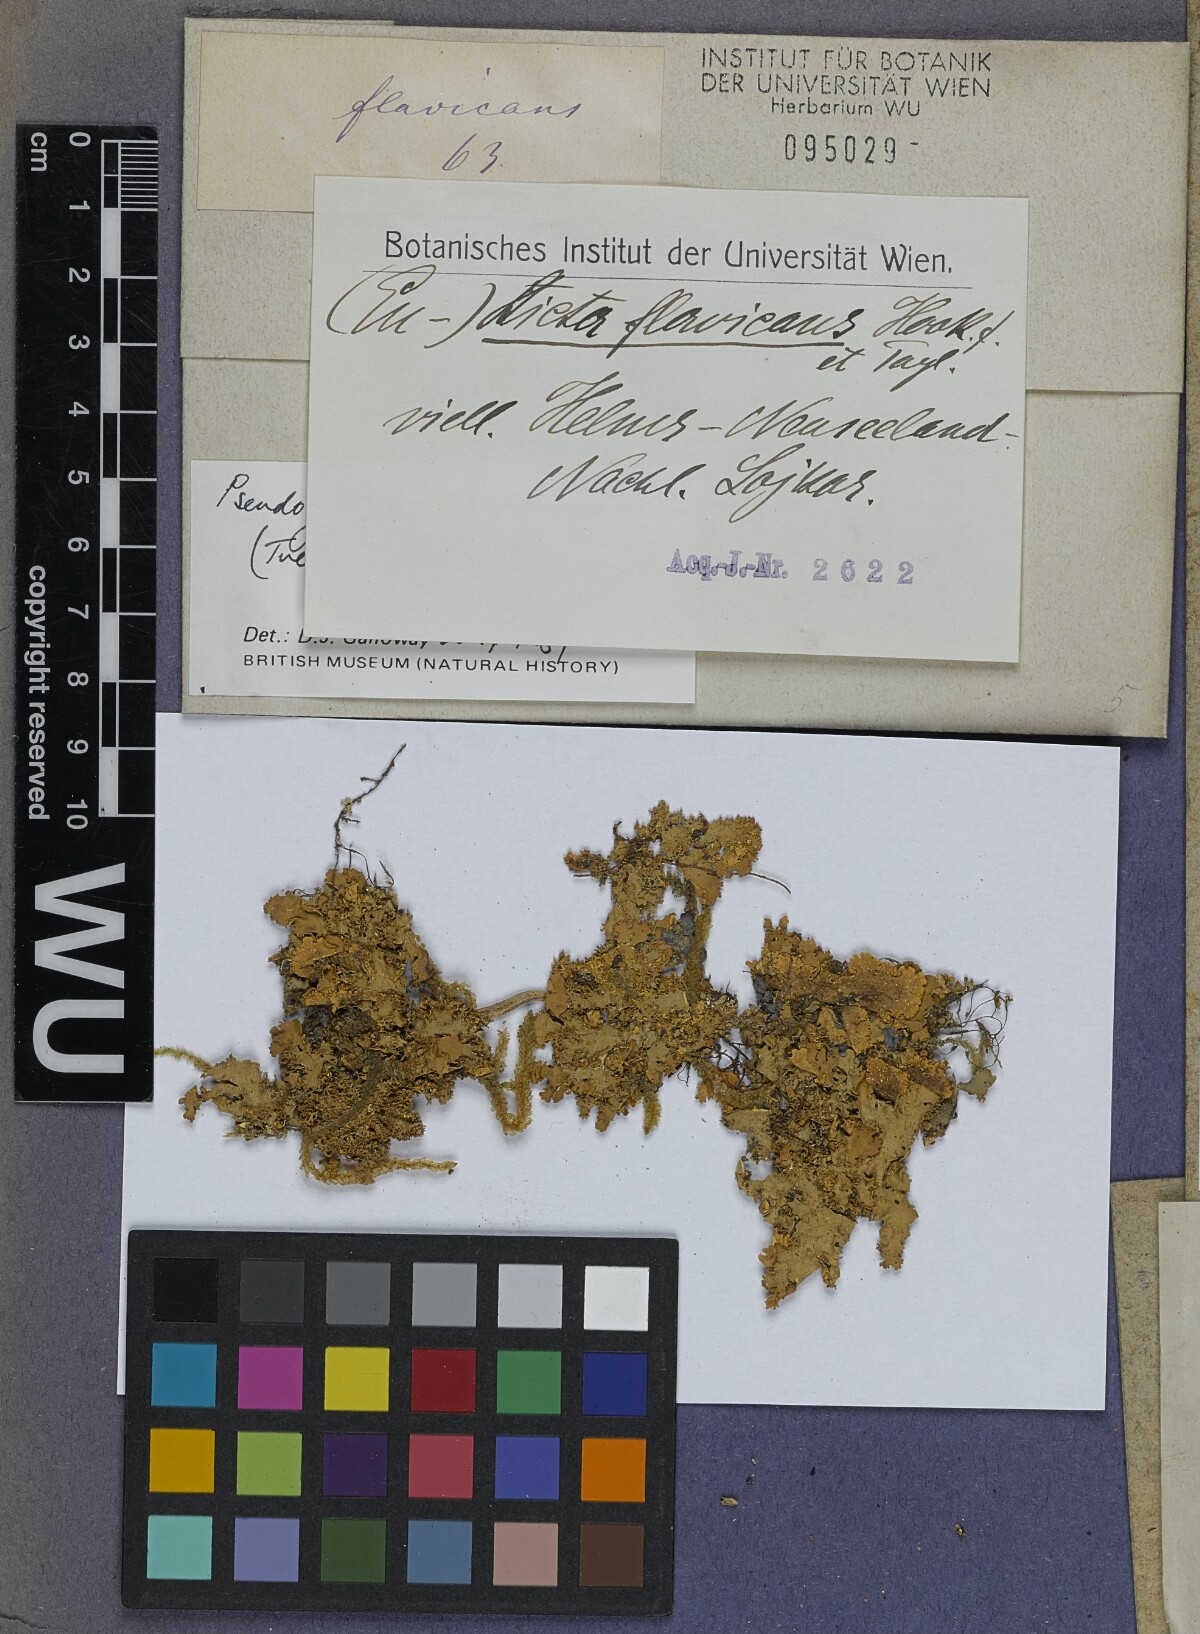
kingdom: Fungi
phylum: Ascomycota
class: Lecanoromycetes
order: Peltigerales
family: Lobariaceae
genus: Podostictina
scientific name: Podostictina pickeringii
